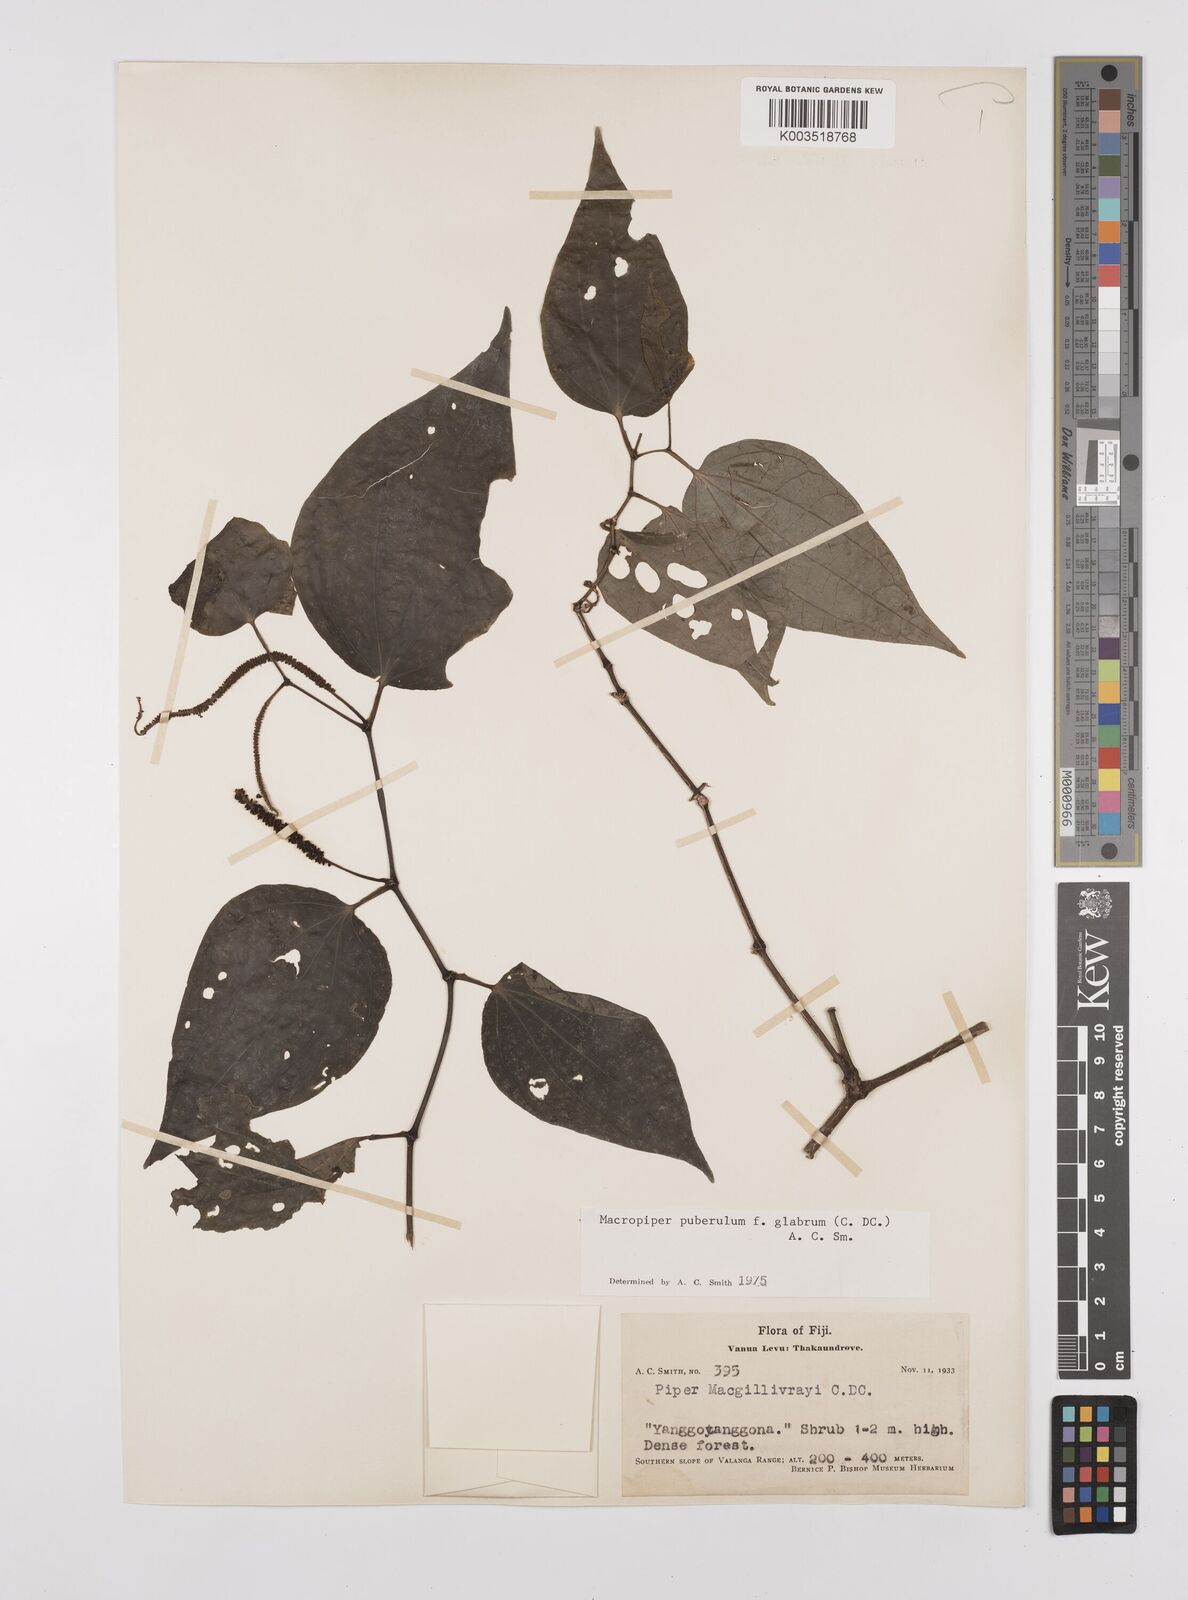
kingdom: Plantae
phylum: Tracheophyta
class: Magnoliopsida
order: Piperales
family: Piperaceae
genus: Macropiper
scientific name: Macropiper puberulum
